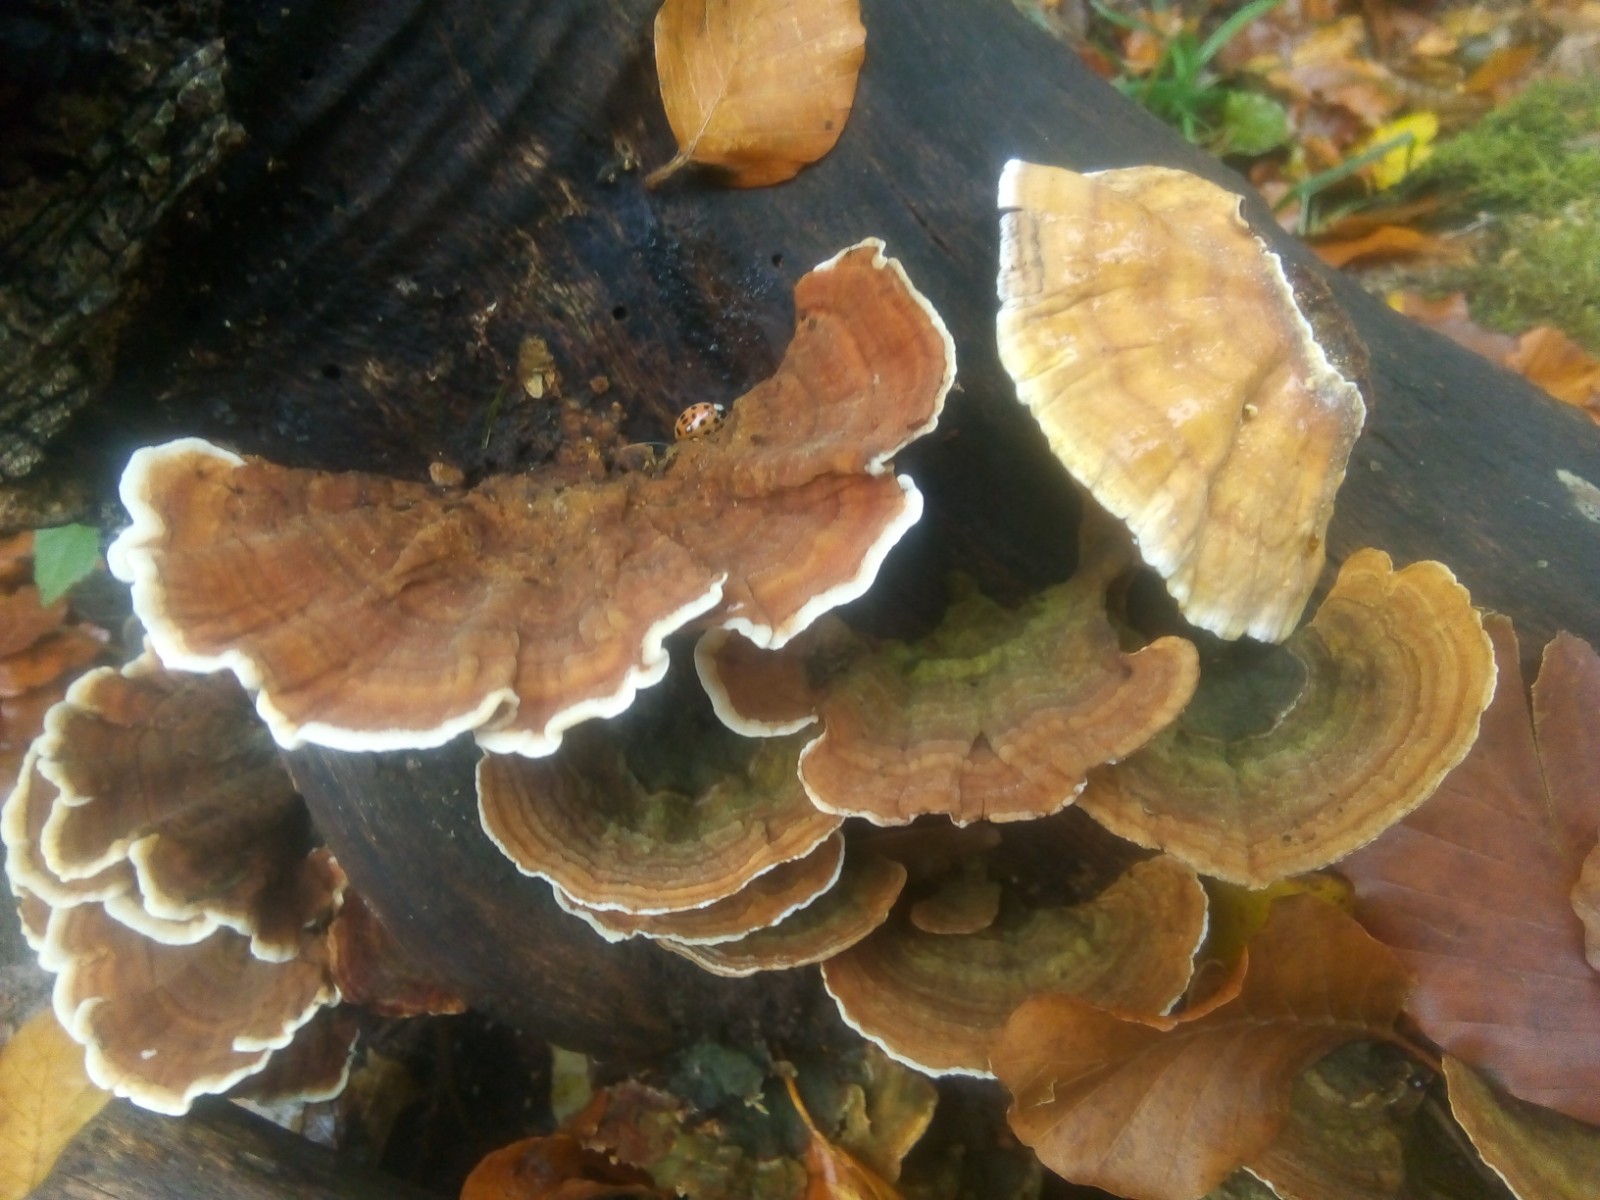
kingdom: Fungi
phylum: Basidiomycota
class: Agaricomycetes
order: Russulales
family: Stereaceae
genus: Stereum
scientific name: Stereum subtomentosum
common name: smuk lædersvamp
